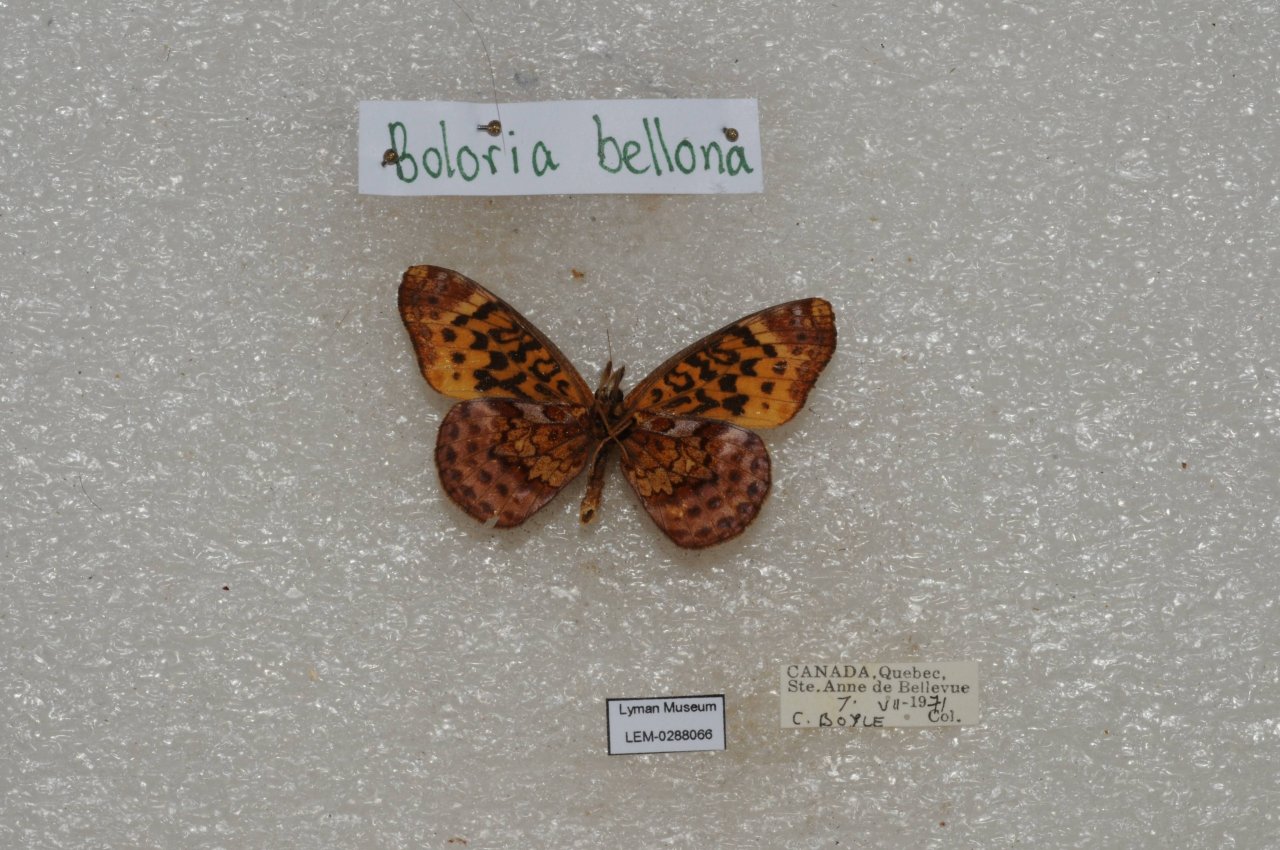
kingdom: Animalia
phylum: Arthropoda
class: Insecta
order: Lepidoptera
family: Nymphalidae
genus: Clossiana
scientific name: Clossiana toddi
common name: Meadow Fritillary
